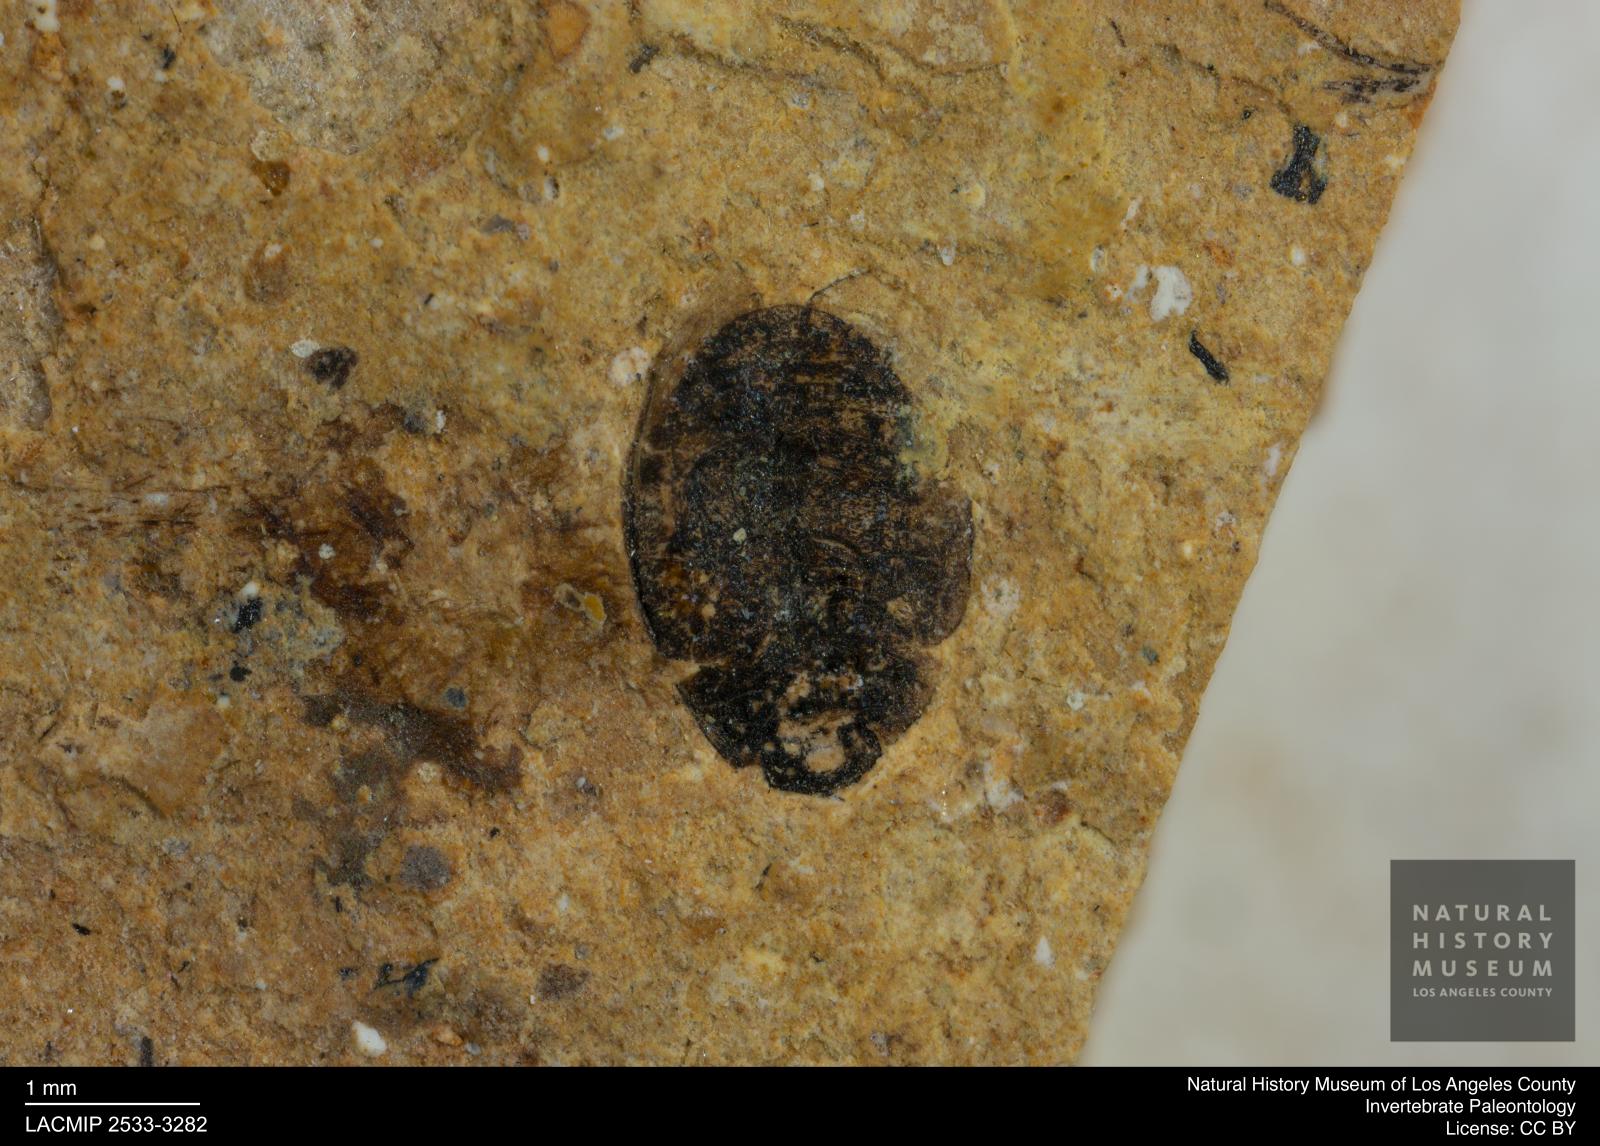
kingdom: Animalia
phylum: Arthropoda
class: Insecta
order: Coleoptera
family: Hydrophilidae
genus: Paracymus
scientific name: Paracymus excitatus
